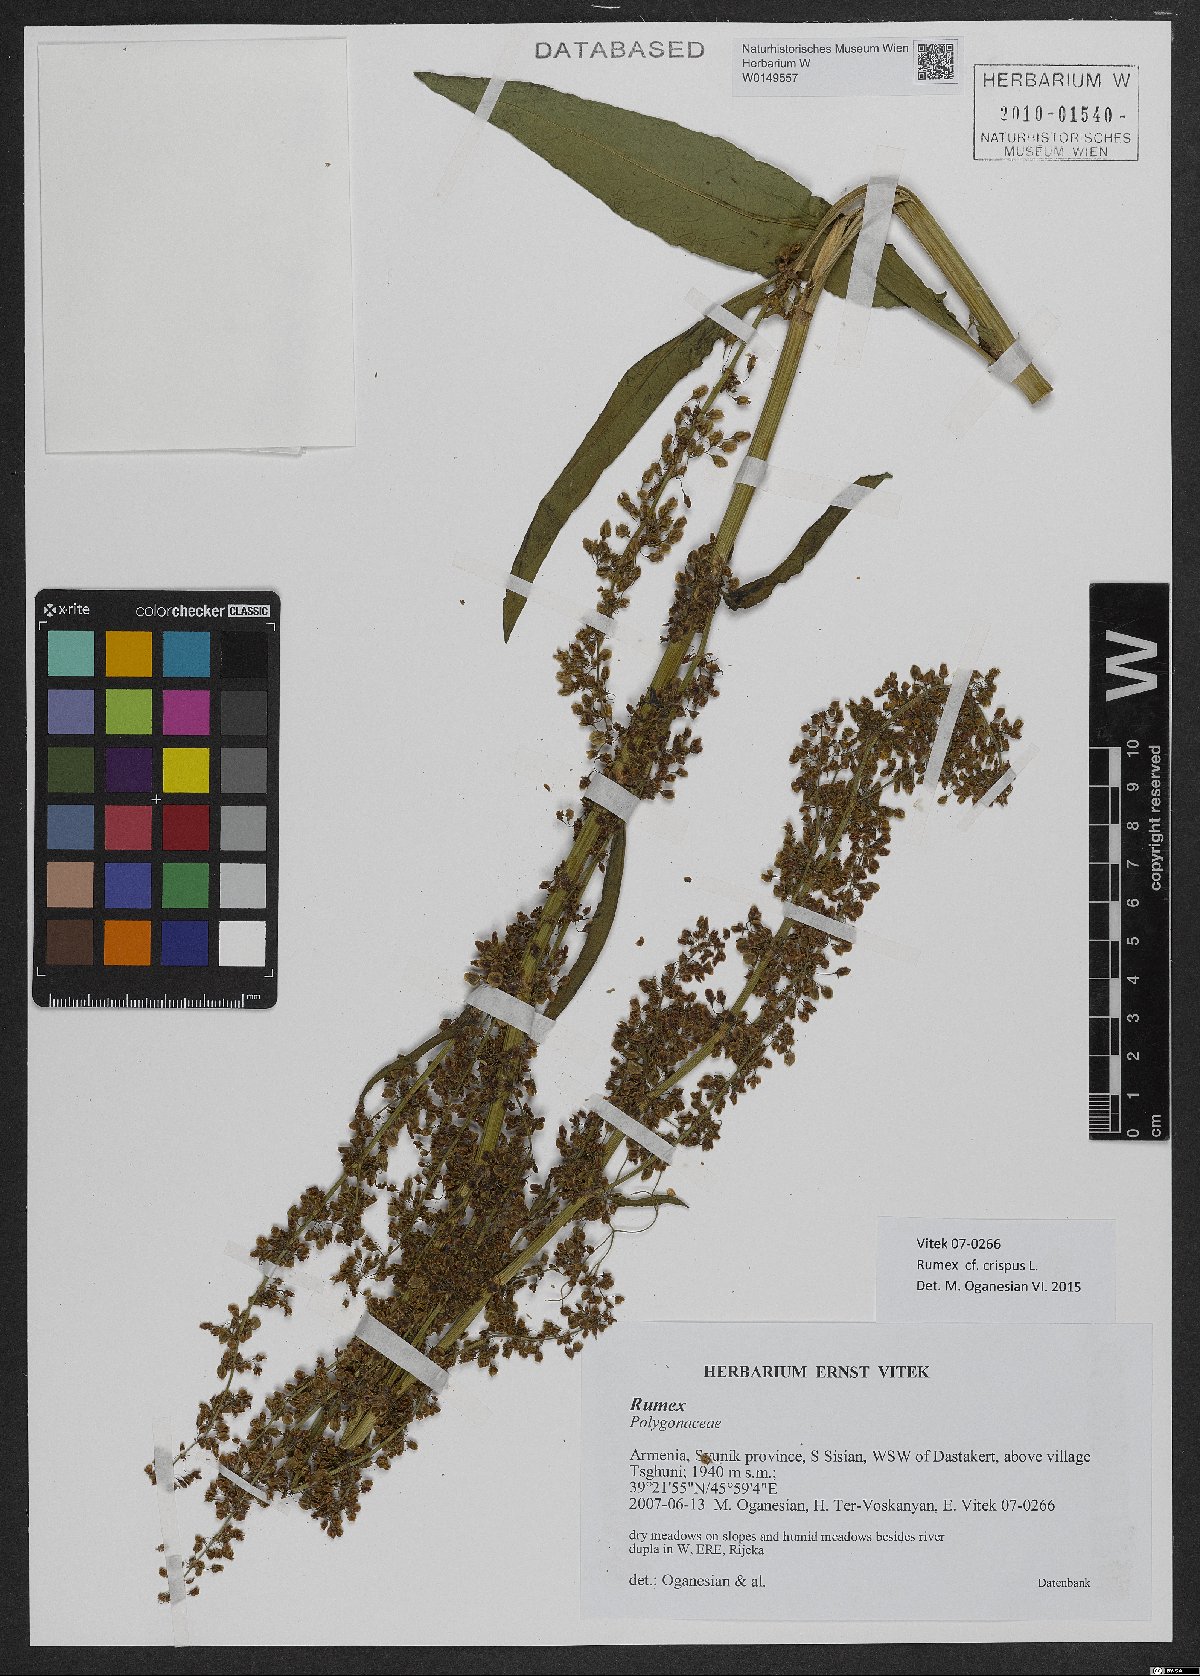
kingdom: Plantae
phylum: Tracheophyta
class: Magnoliopsida
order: Caryophyllales
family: Polygonaceae
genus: Rumex
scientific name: Rumex crispus
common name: Curled dock
